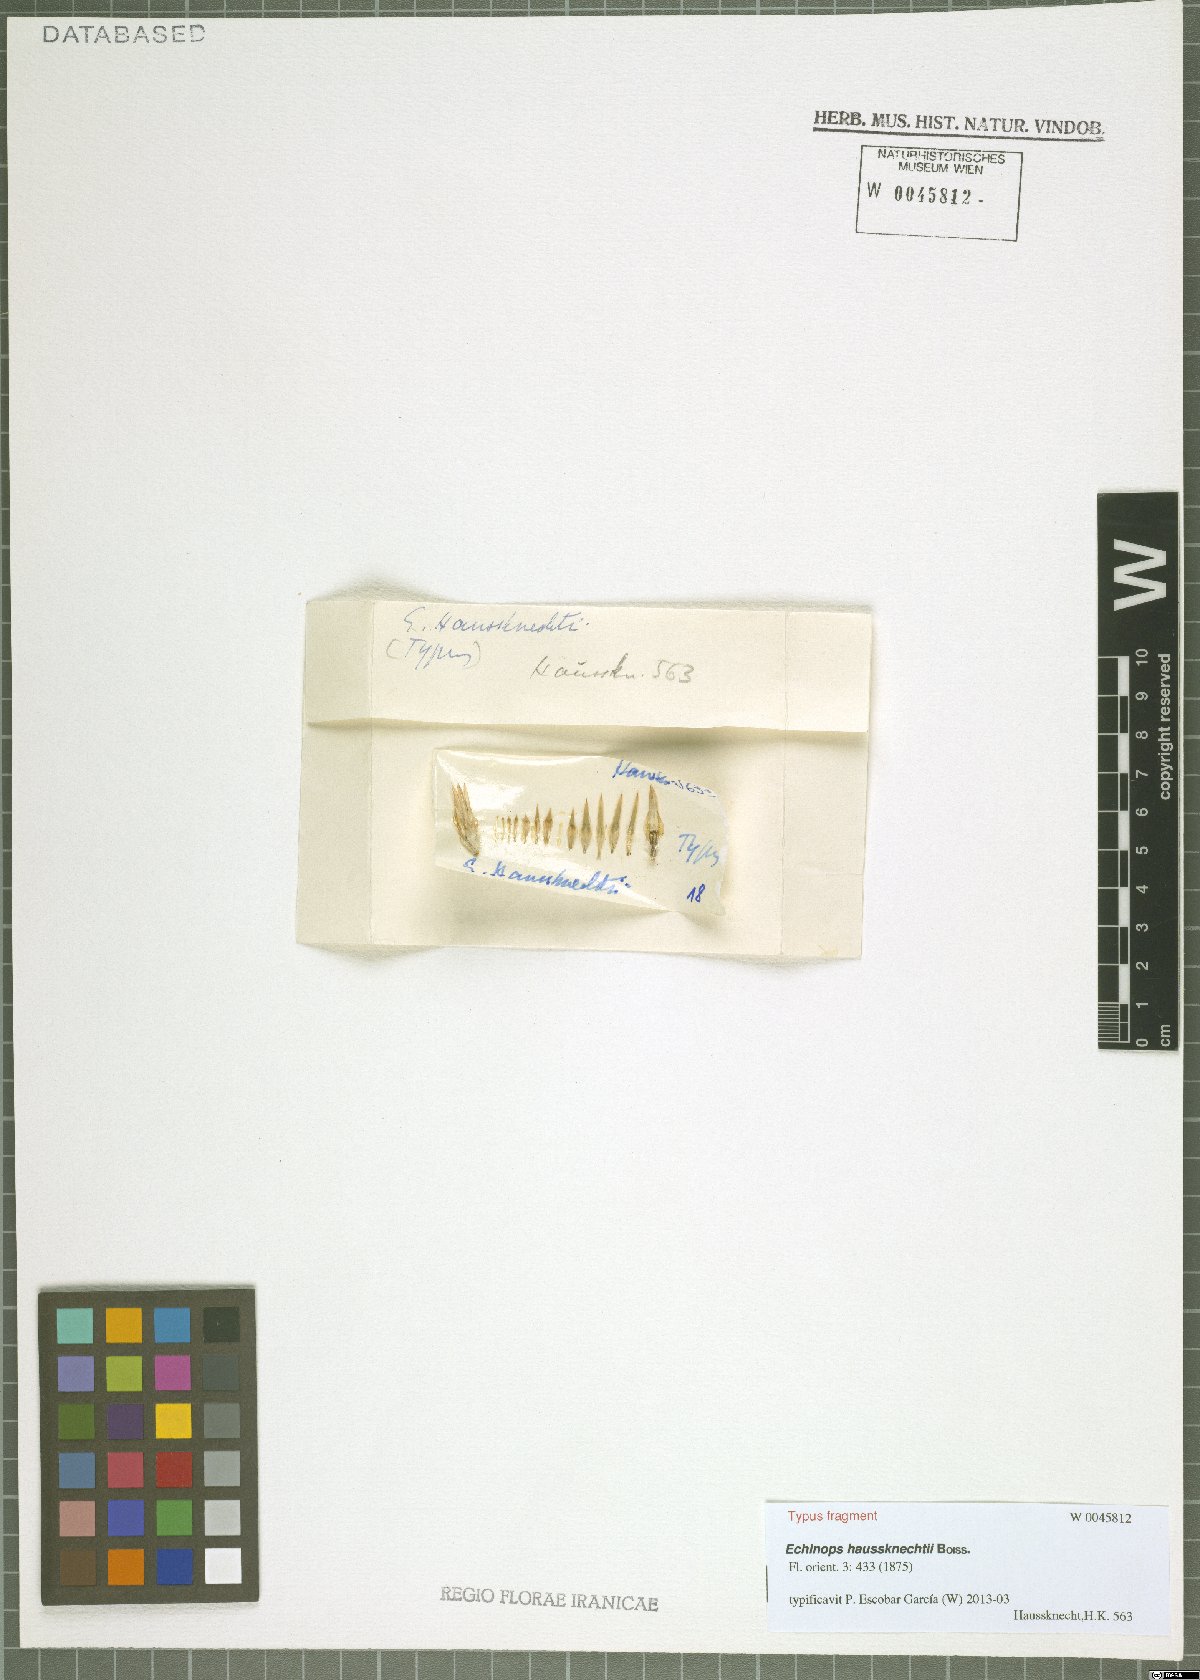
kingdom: Plantae
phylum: Tracheophyta
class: Magnoliopsida
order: Asterales
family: Asteraceae
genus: Echinops
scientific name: Echinops haussknechtii
